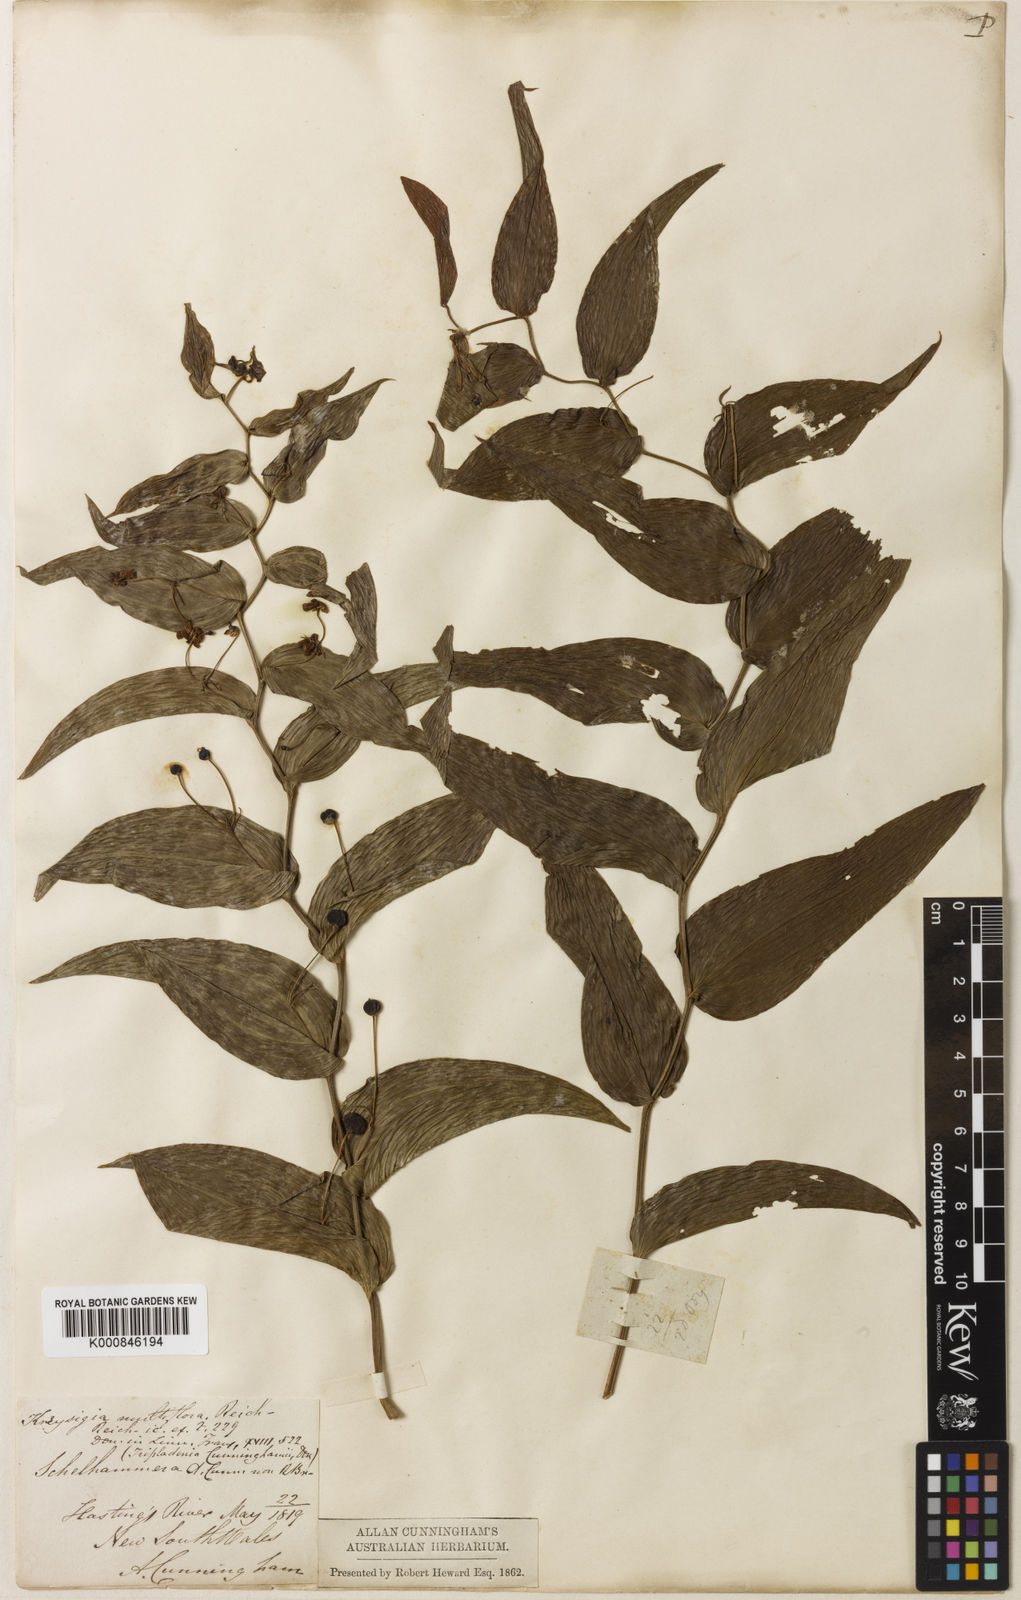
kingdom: Plantae
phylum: Tracheophyta
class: Liliopsida
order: Liliales
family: Colchicaceae
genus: Tripladenia
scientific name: Tripladenia cunninghamii
